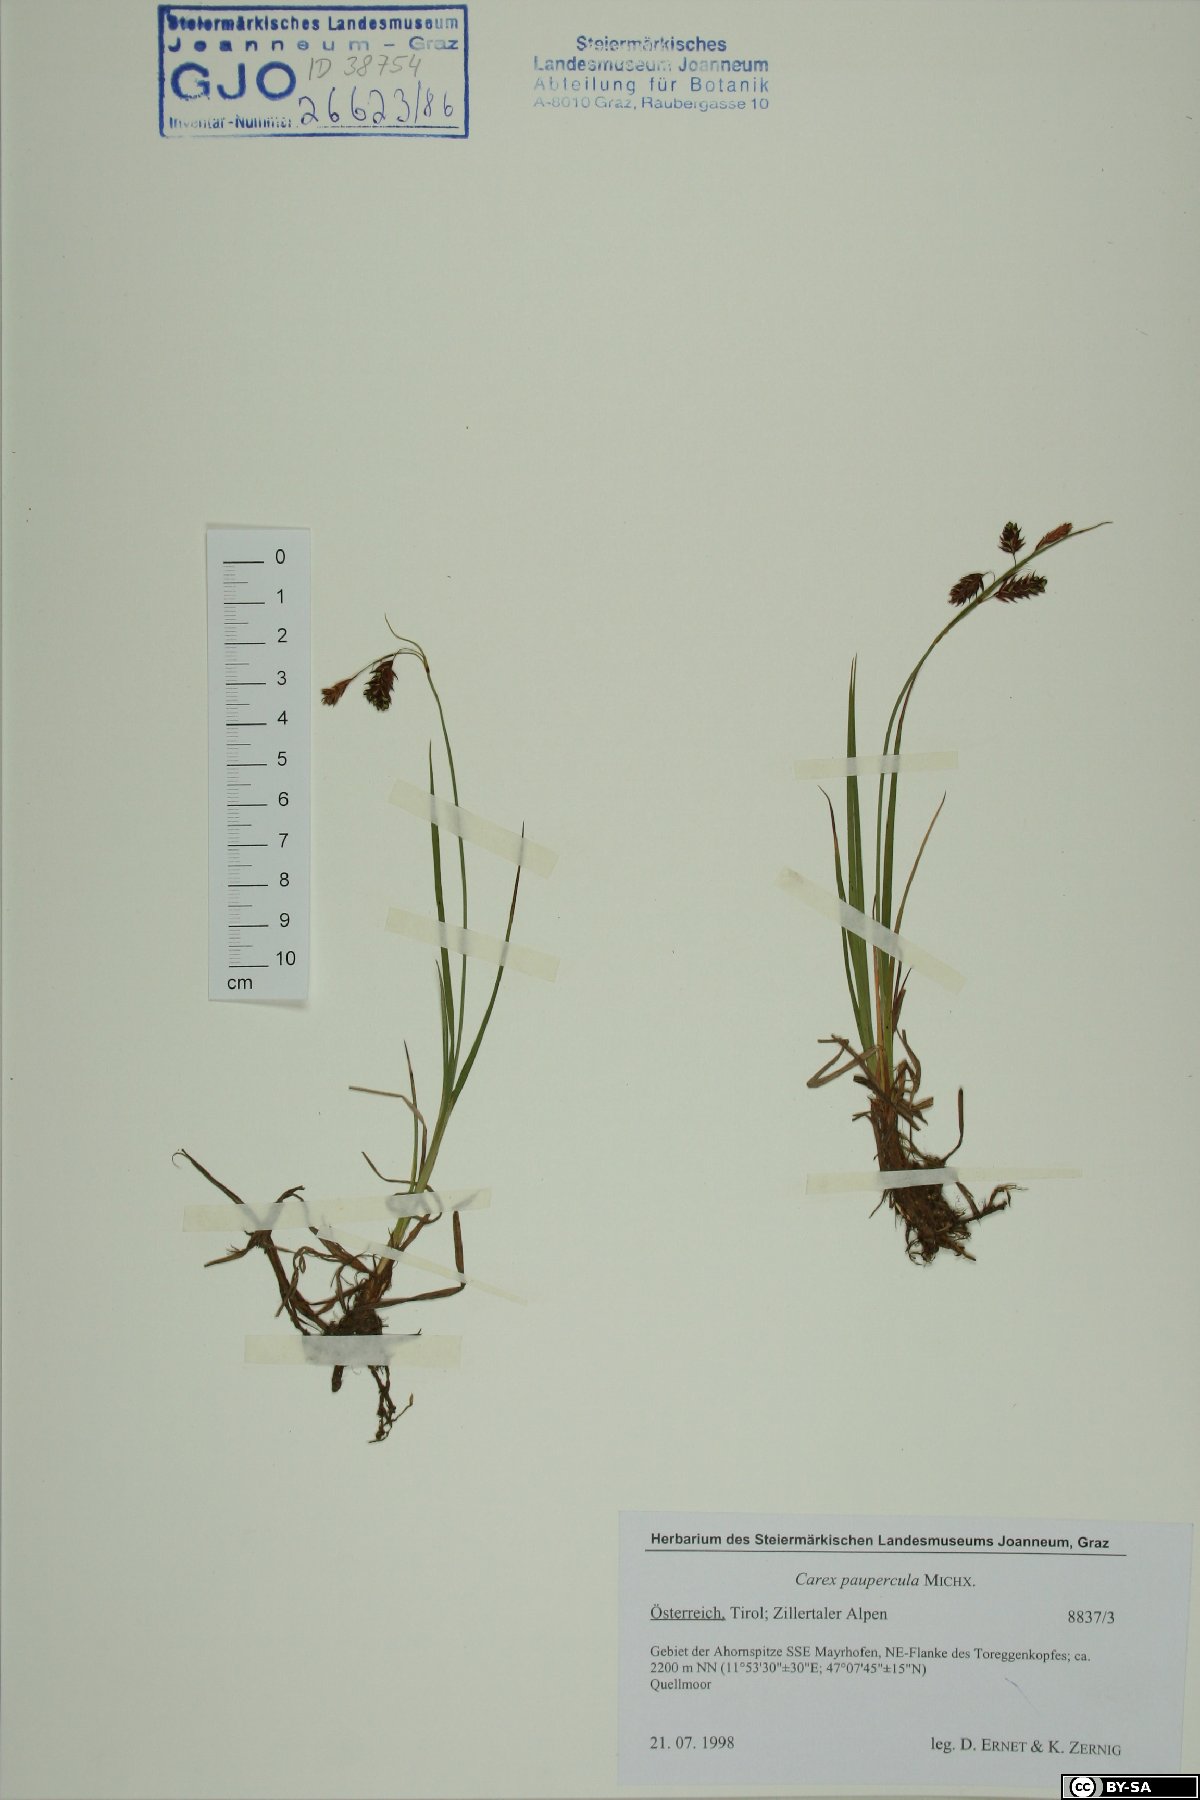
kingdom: Plantae
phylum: Tracheophyta
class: Liliopsida
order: Poales
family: Cyperaceae
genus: Carex
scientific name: Carex magellanica
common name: Bog sedge
